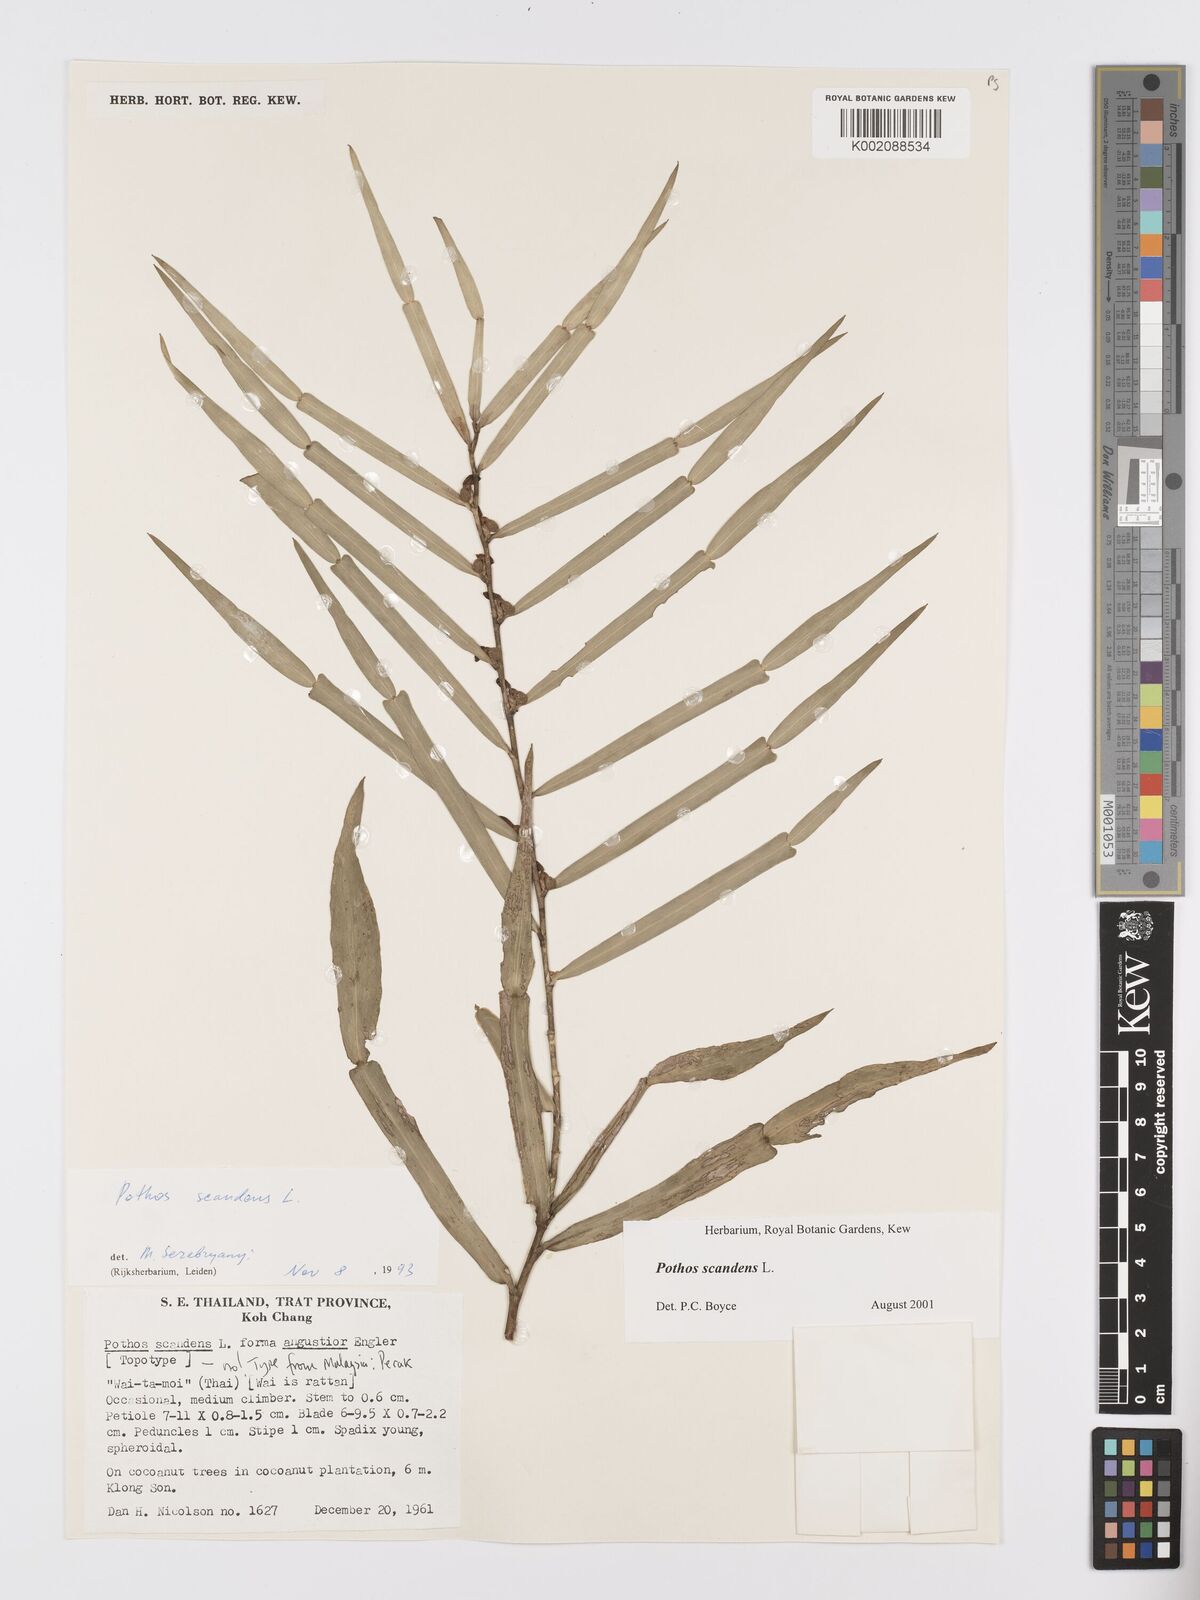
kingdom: Plantae
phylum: Tracheophyta
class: Liliopsida
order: Alismatales
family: Araceae
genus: Pothos
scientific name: Pothos scandens
